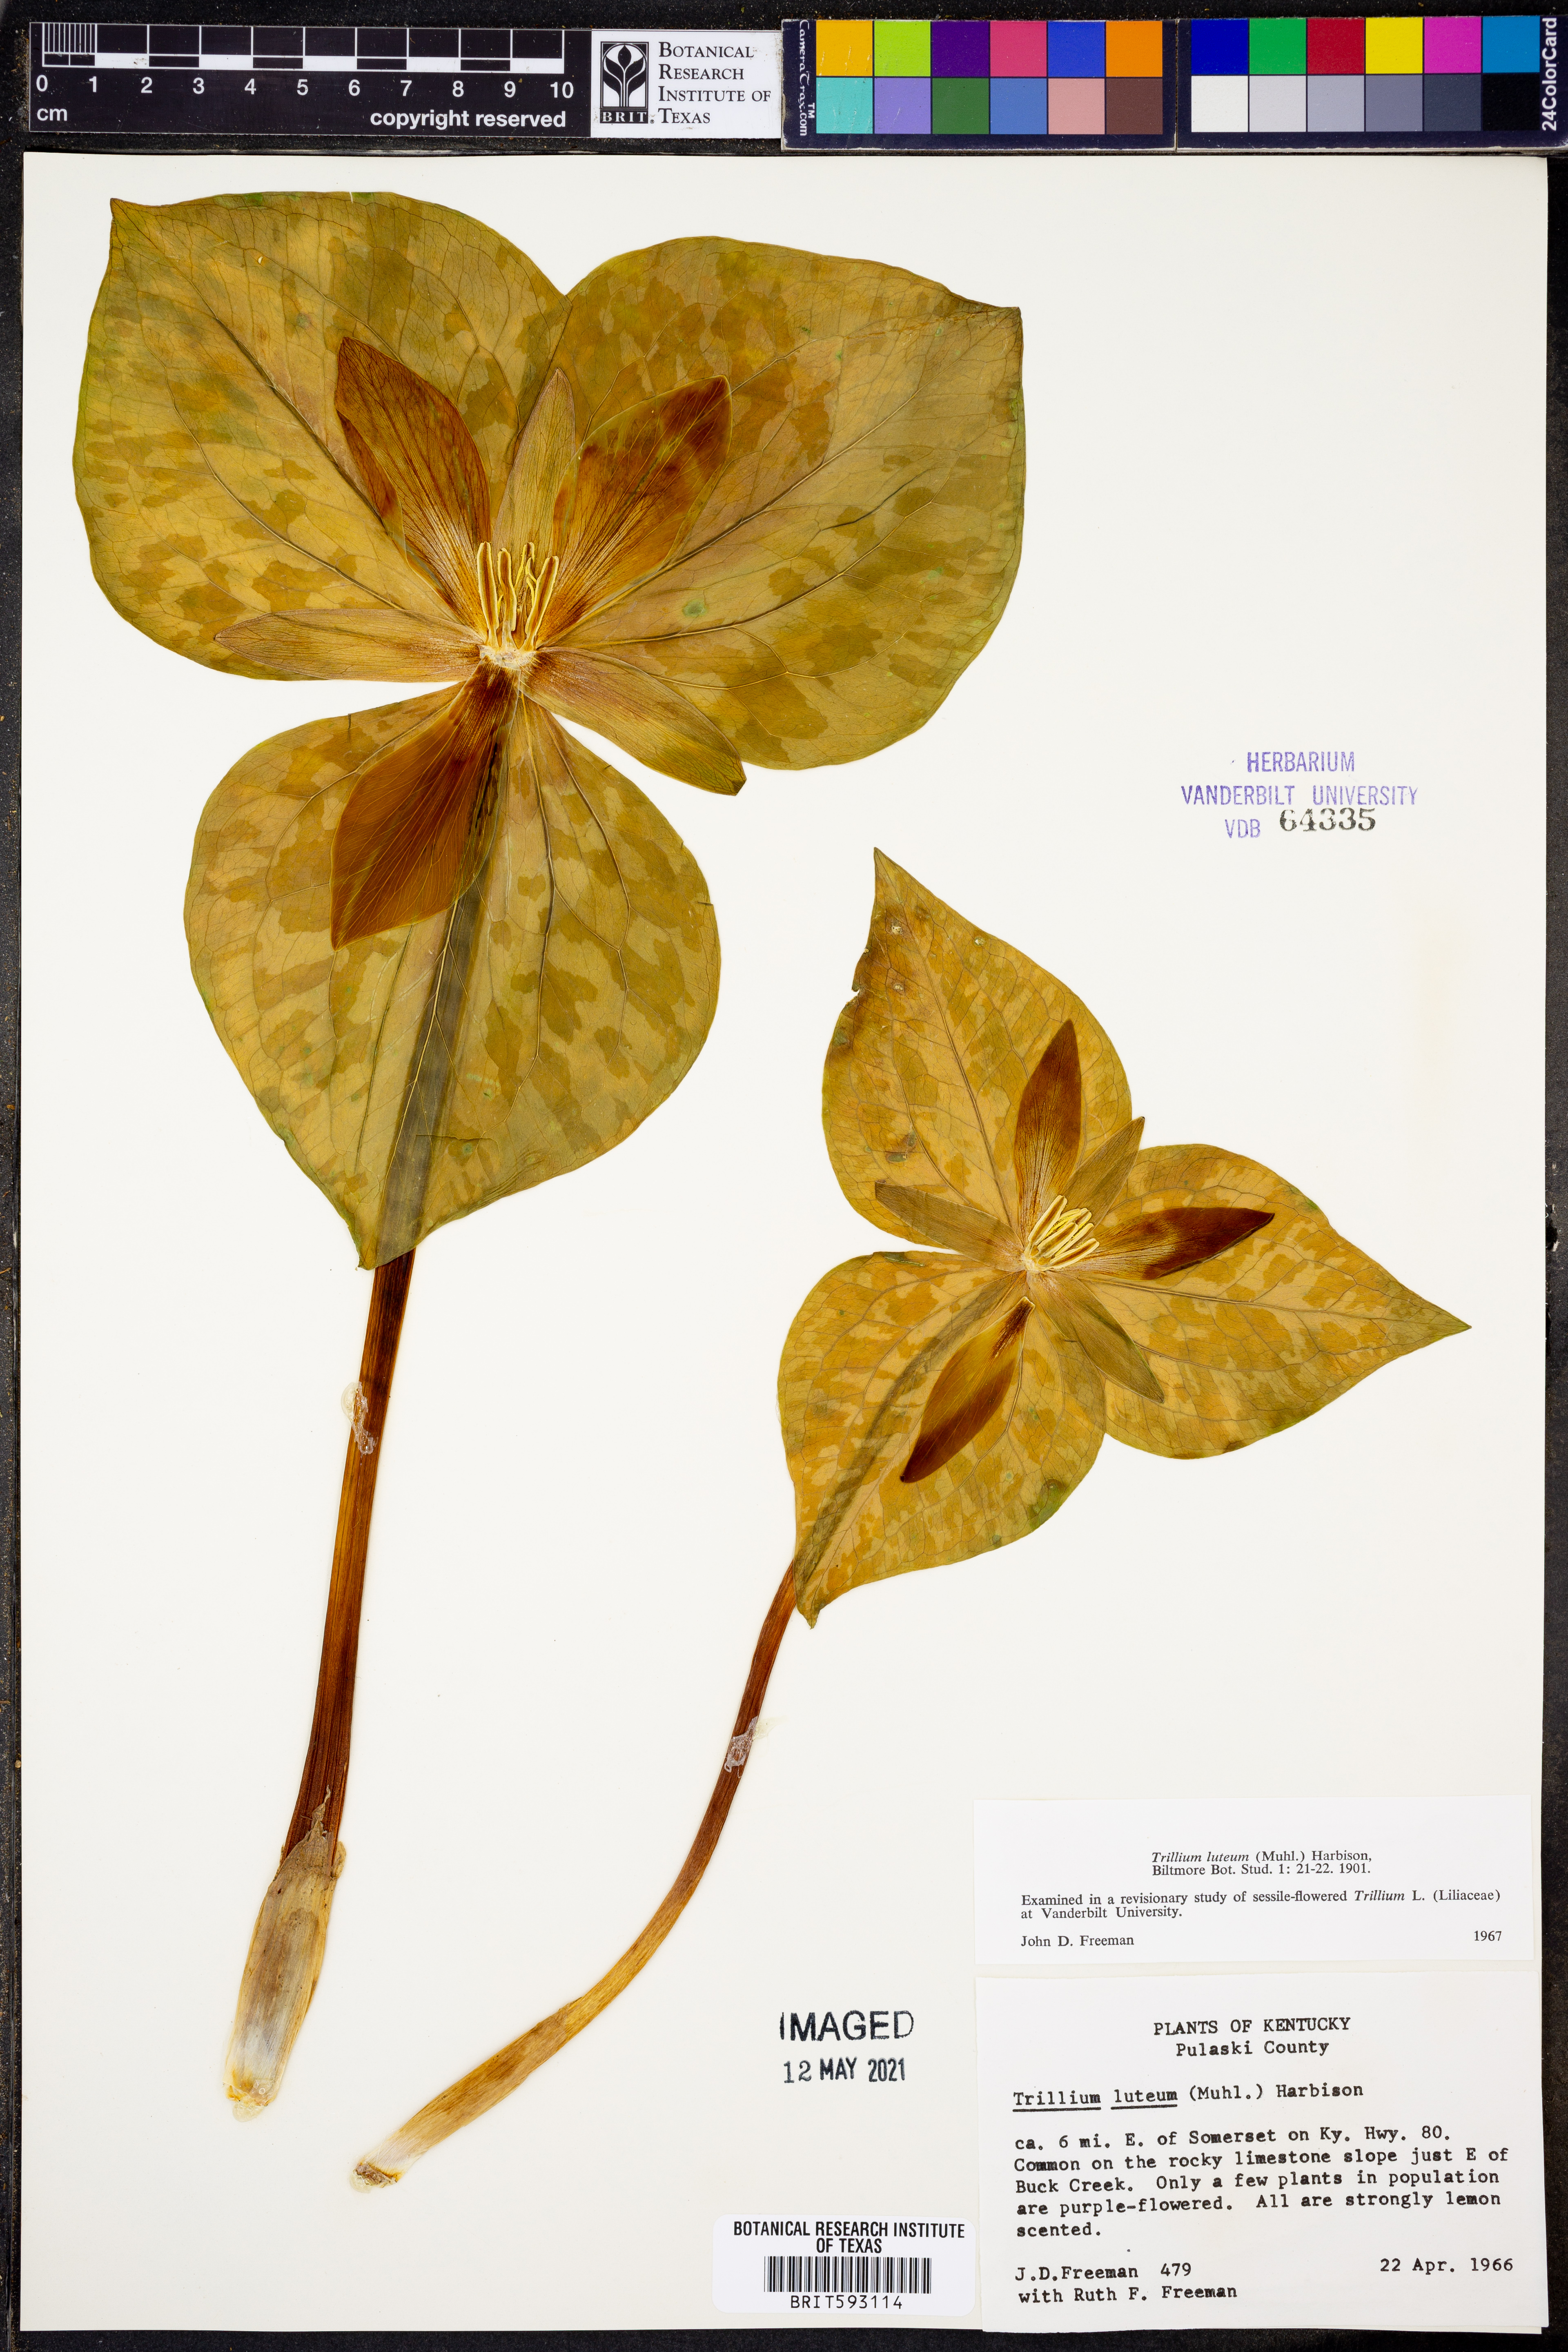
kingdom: Plantae
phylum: Tracheophyta
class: Liliopsida
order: Liliales
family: Melanthiaceae
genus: Trillium
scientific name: Trillium luteum
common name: Wax trillium
